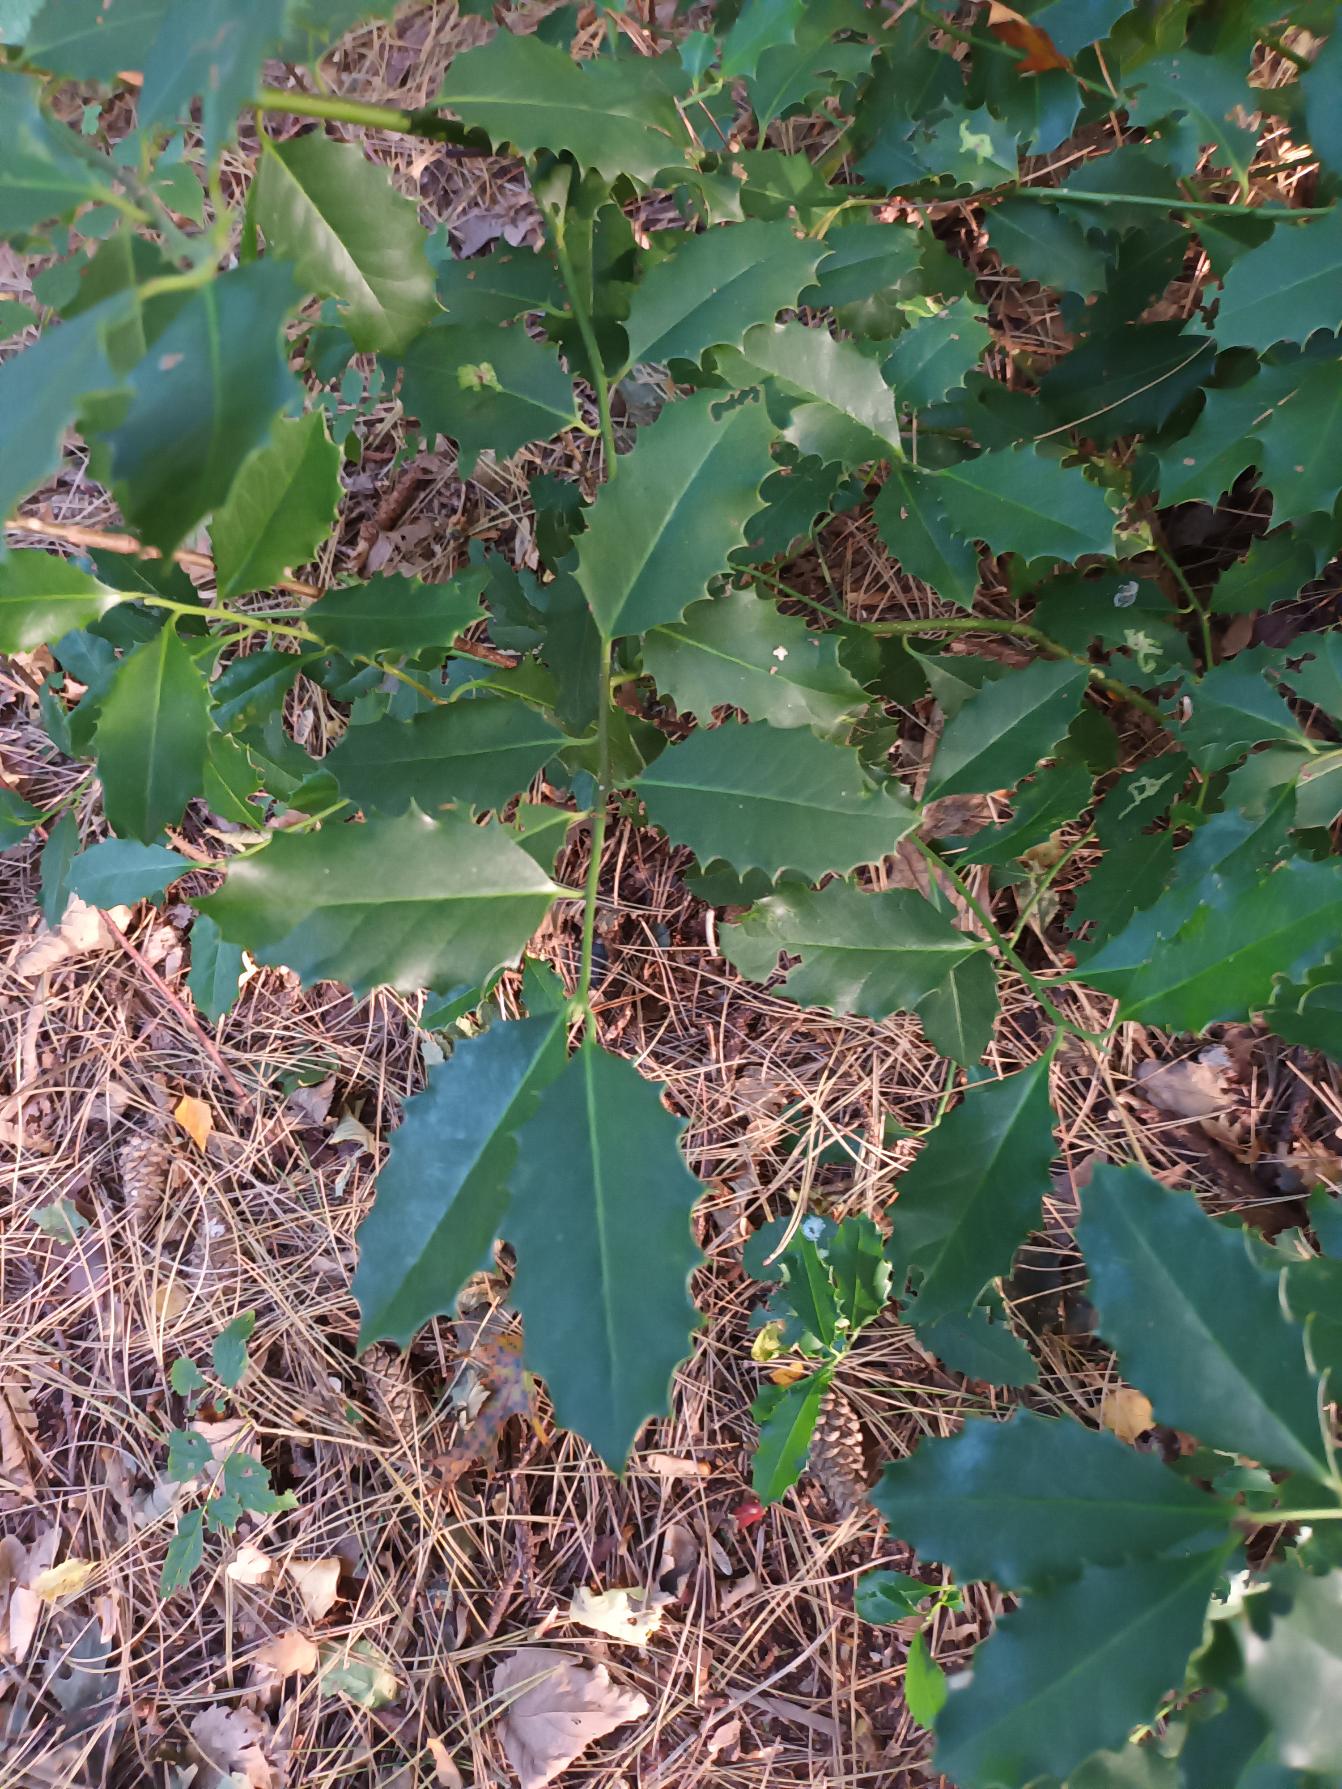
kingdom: Plantae
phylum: Tracheophyta
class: Magnoliopsida
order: Aquifoliales
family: Aquifoliaceae
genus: Ilex
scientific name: Ilex altaclerensis
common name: Storbladet kristtorn
